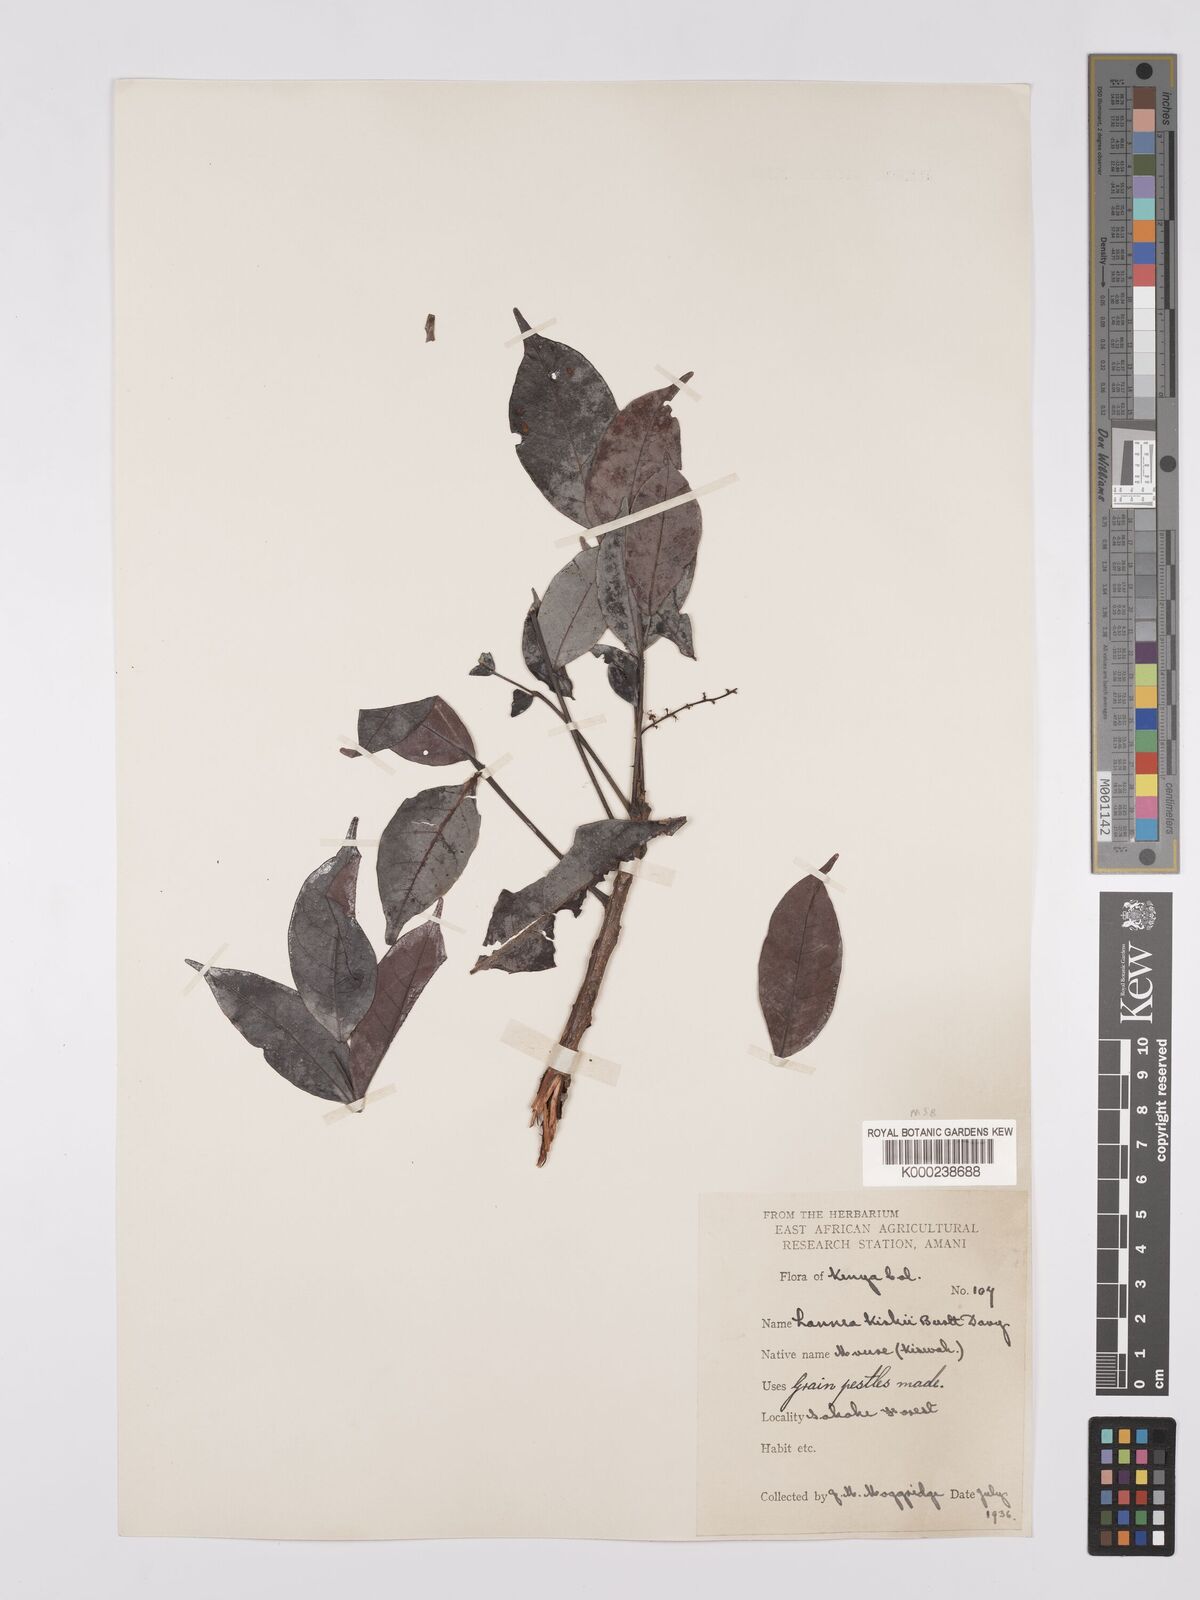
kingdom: Plantae
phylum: Tracheophyta
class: Magnoliopsida
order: Sapindales
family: Anacardiaceae
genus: Lannea
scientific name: Lannea schweinfurthii
